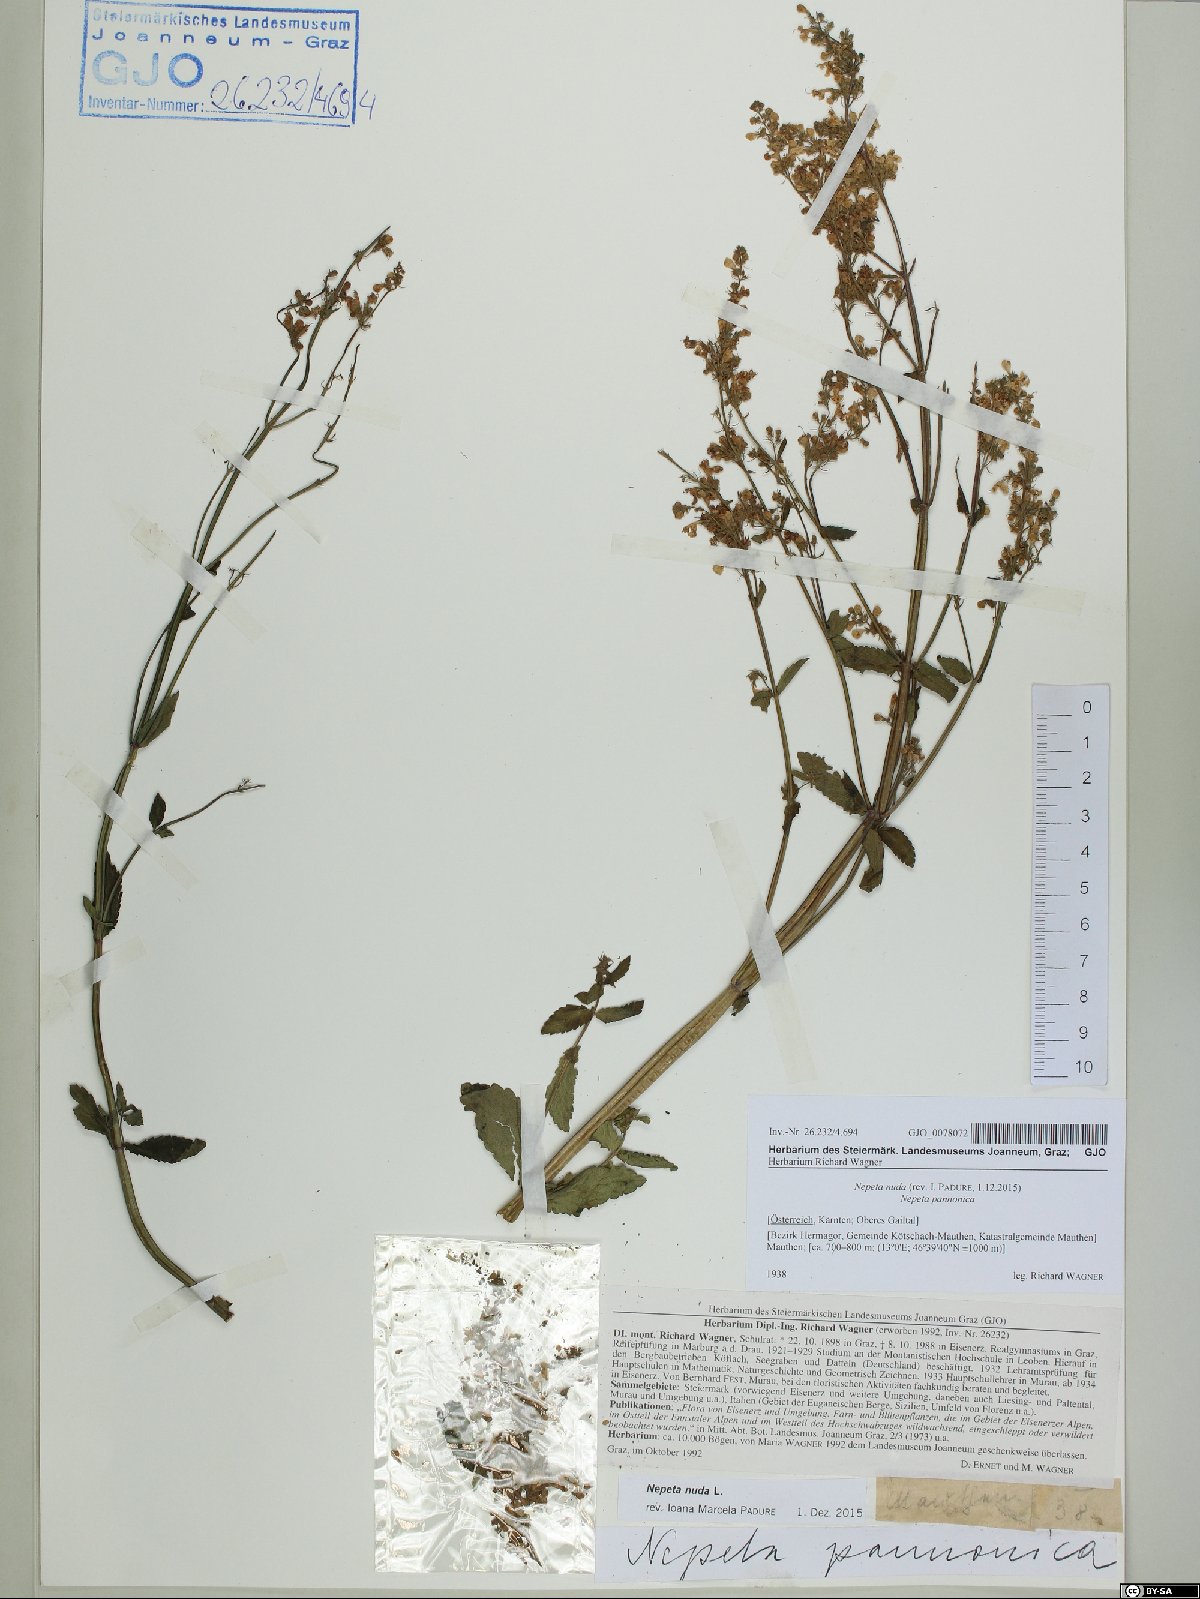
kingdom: Plantae
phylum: Tracheophyta
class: Magnoliopsida
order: Lamiales
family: Lamiaceae
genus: Nepeta
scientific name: Nepeta nuda
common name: Hairless catmint
